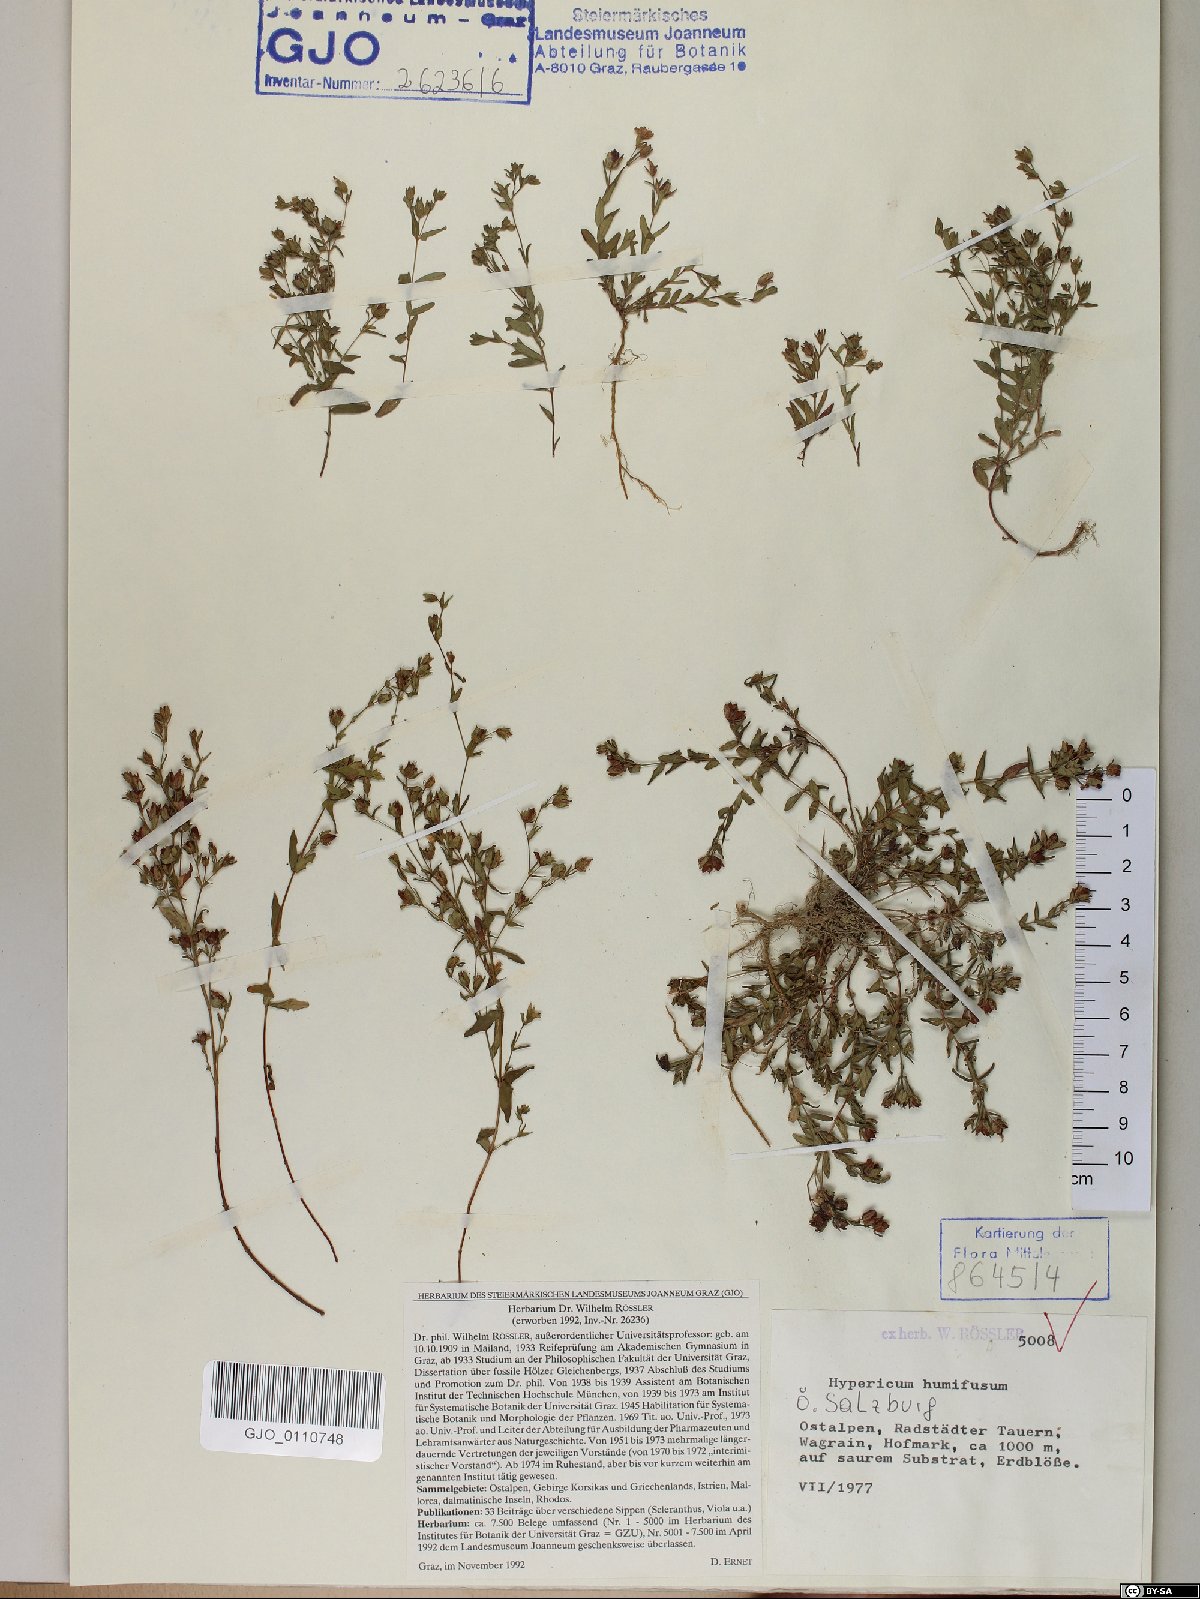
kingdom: Plantae
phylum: Tracheophyta
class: Magnoliopsida
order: Malpighiales
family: Hypericaceae
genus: Hypericum
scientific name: Hypericum humifusum
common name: Trailing st. john's-wort
